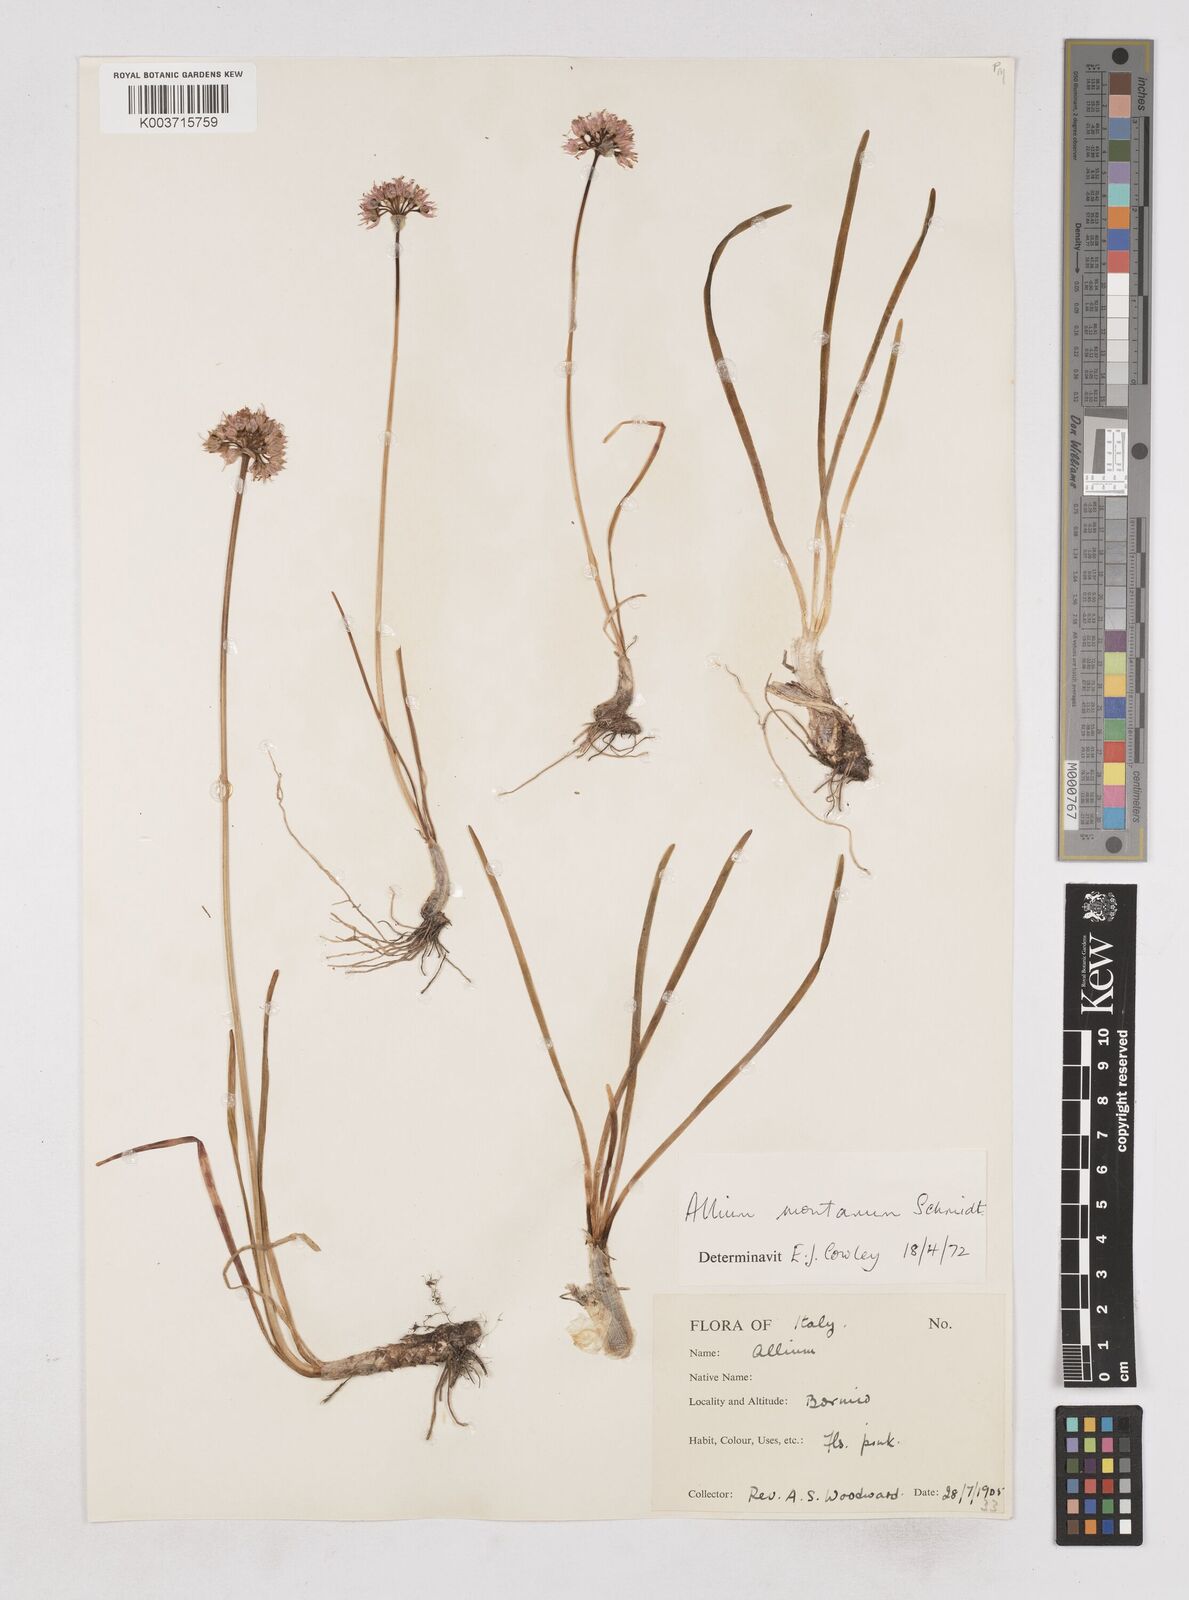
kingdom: Plantae
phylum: Tracheophyta
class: Liliopsida
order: Asparagales
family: Amaryllidaceae
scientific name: Amaryllidaceae
